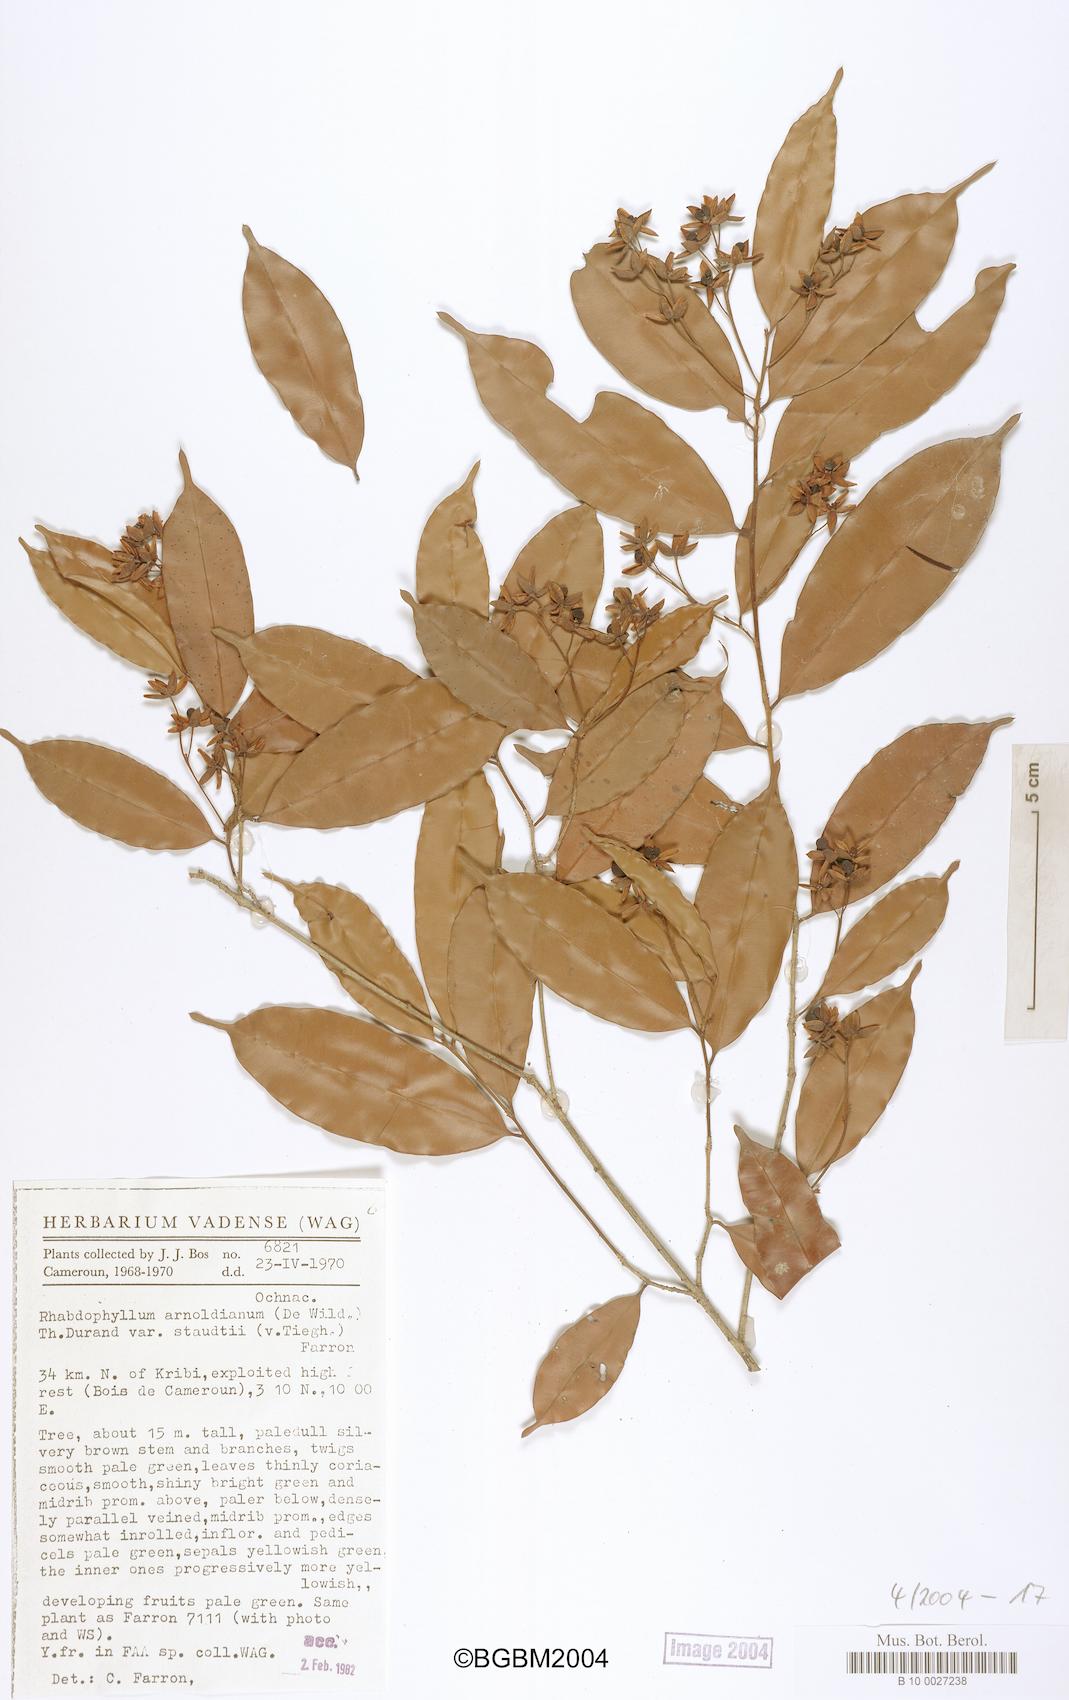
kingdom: Plantae
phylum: Tracheophyta
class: Magnoliopsida
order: Malpighiales
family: Ochnaceae
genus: Rhabdophyllum
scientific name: Rhabdophyllum arnoldianum
